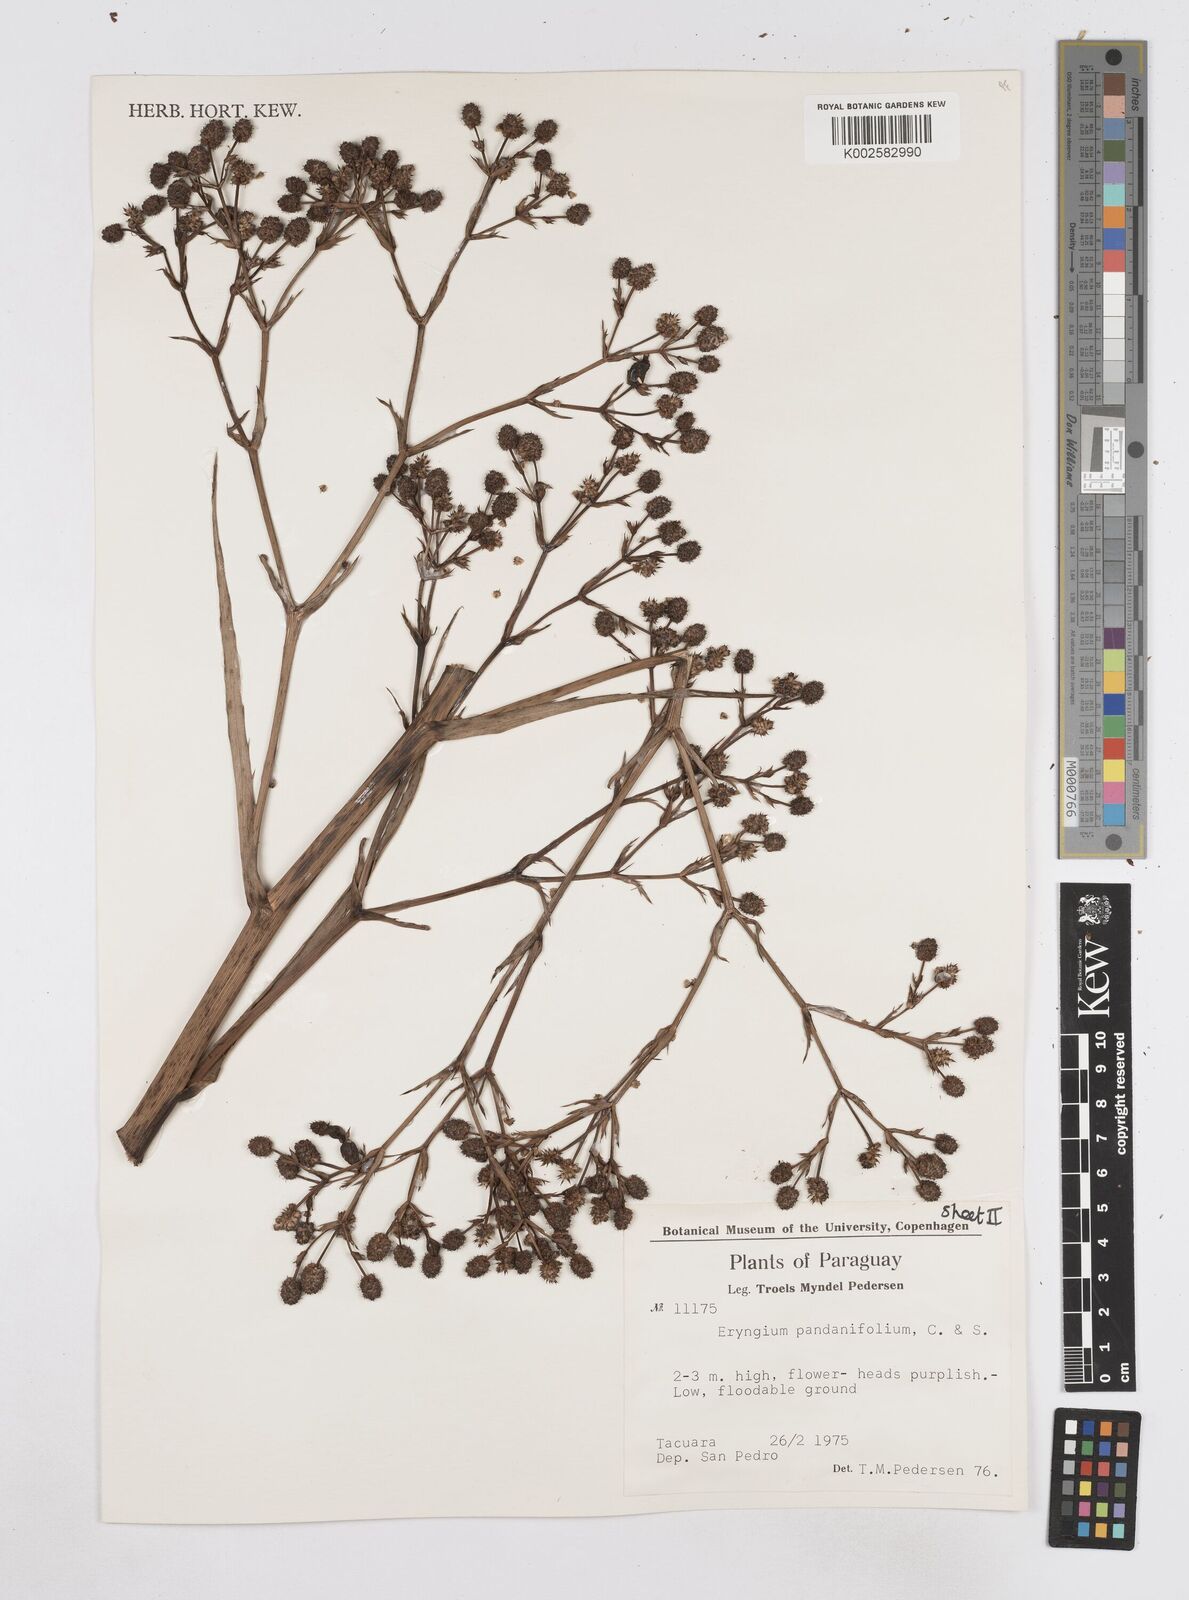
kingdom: Plantae
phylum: Tracheophyta
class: Magnoliopsida
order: Apiales
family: Apiaceae
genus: Eryngium
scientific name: Eryngium pandanifolium
